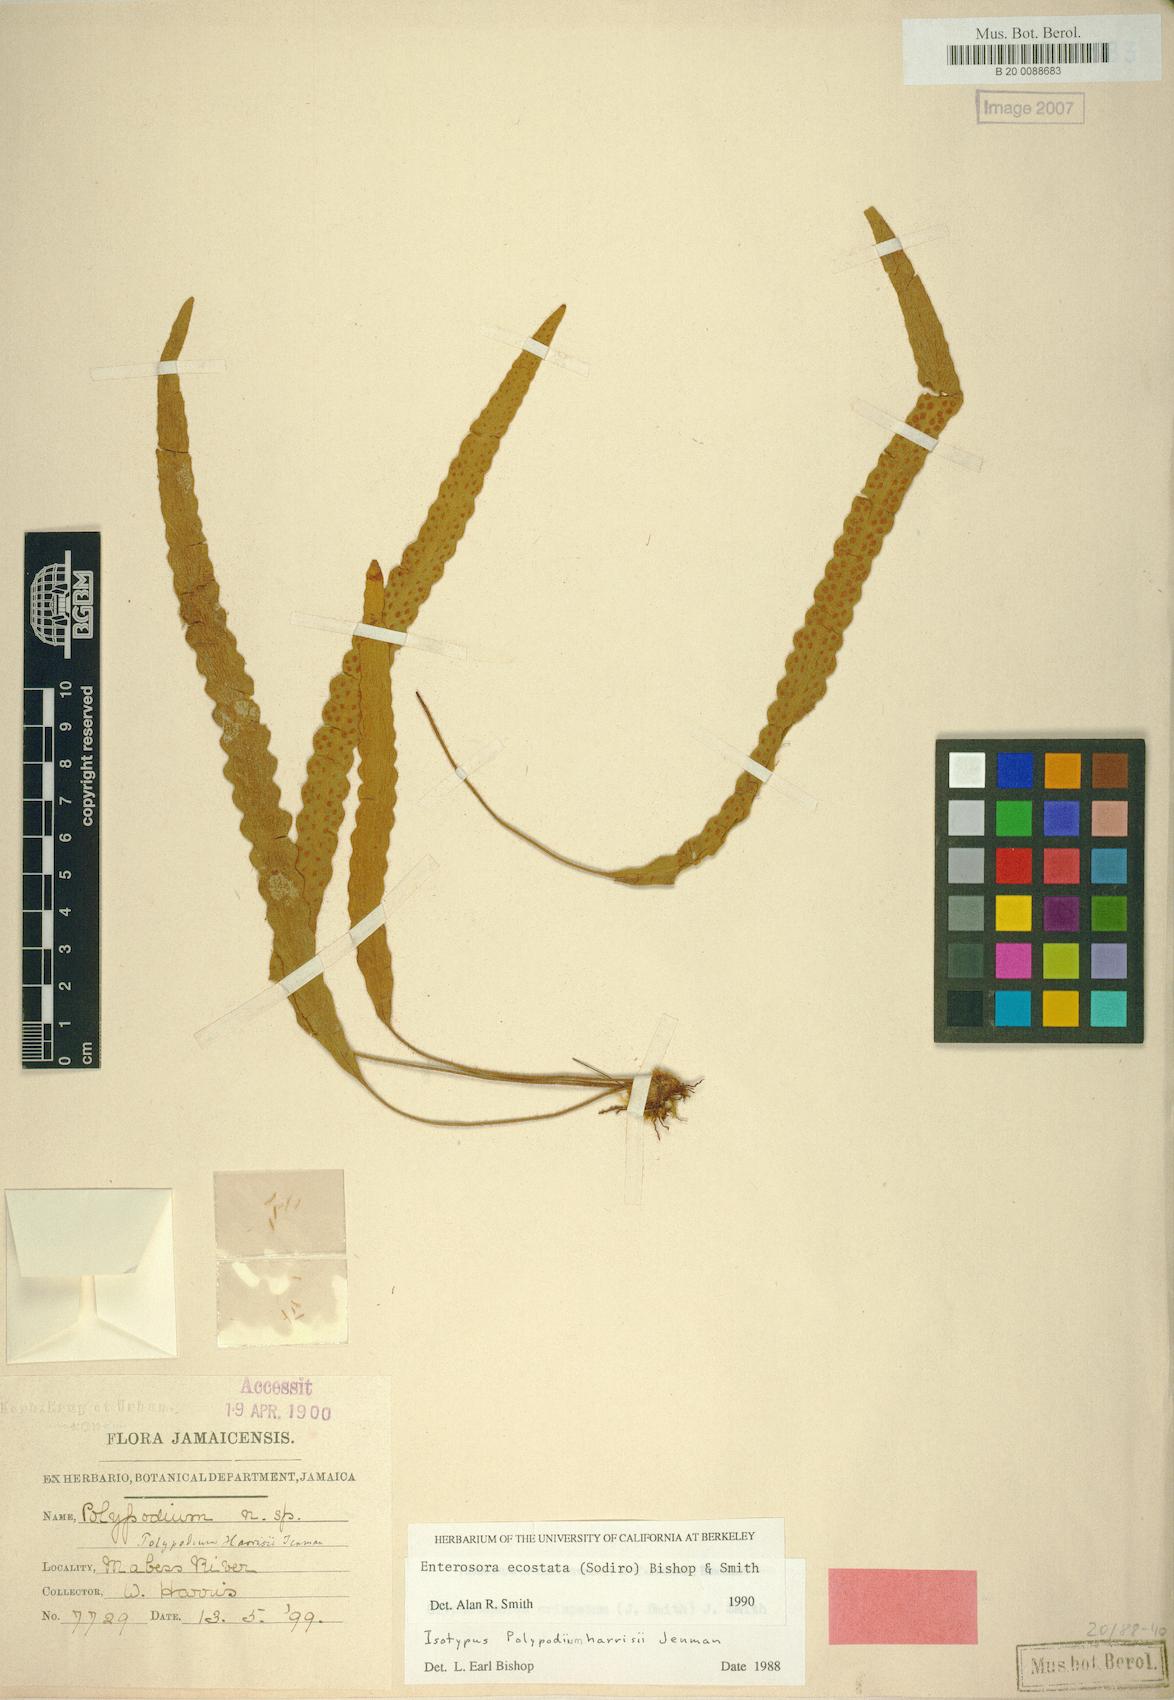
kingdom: Plantae
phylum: Tracheophyta
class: Polypodiopsida
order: Polypodiales
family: Polypodiaceae
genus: Enterosora
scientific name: Enterosora ecostata
